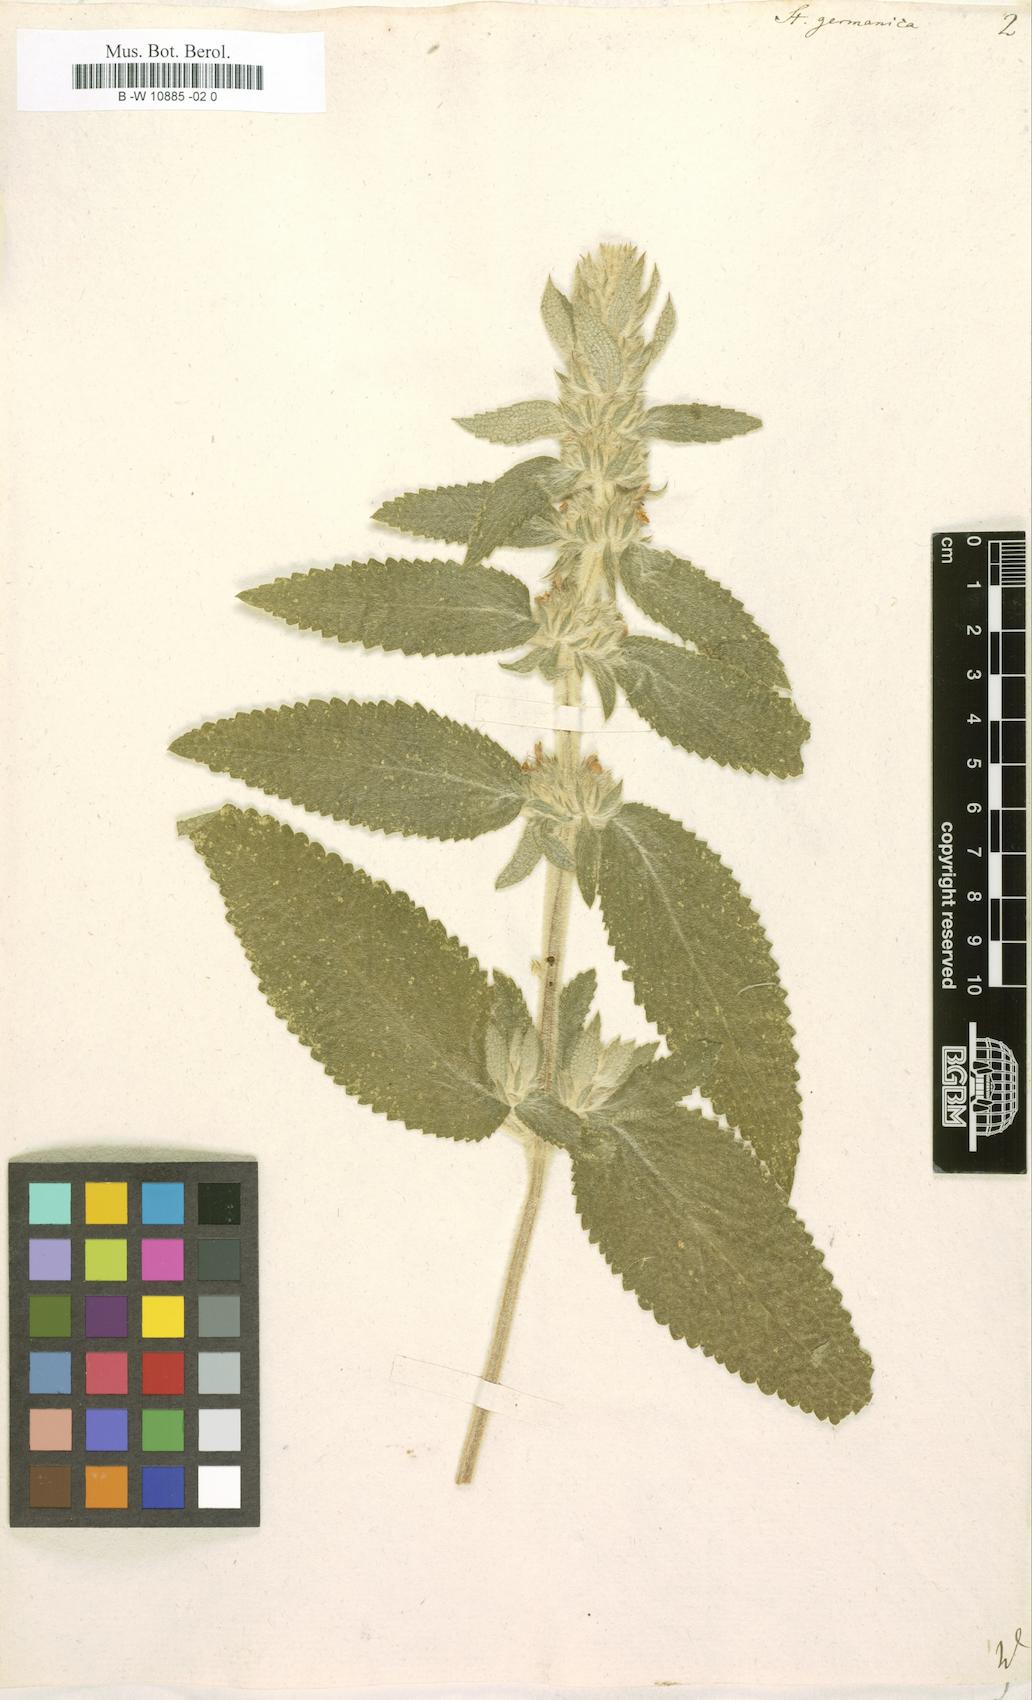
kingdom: Plantae
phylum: Tracheophyta
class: Magnoliopsida
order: Lamiales
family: Lamiaceae
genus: Stachys
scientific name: Stachys germanica
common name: Downy woundwort
